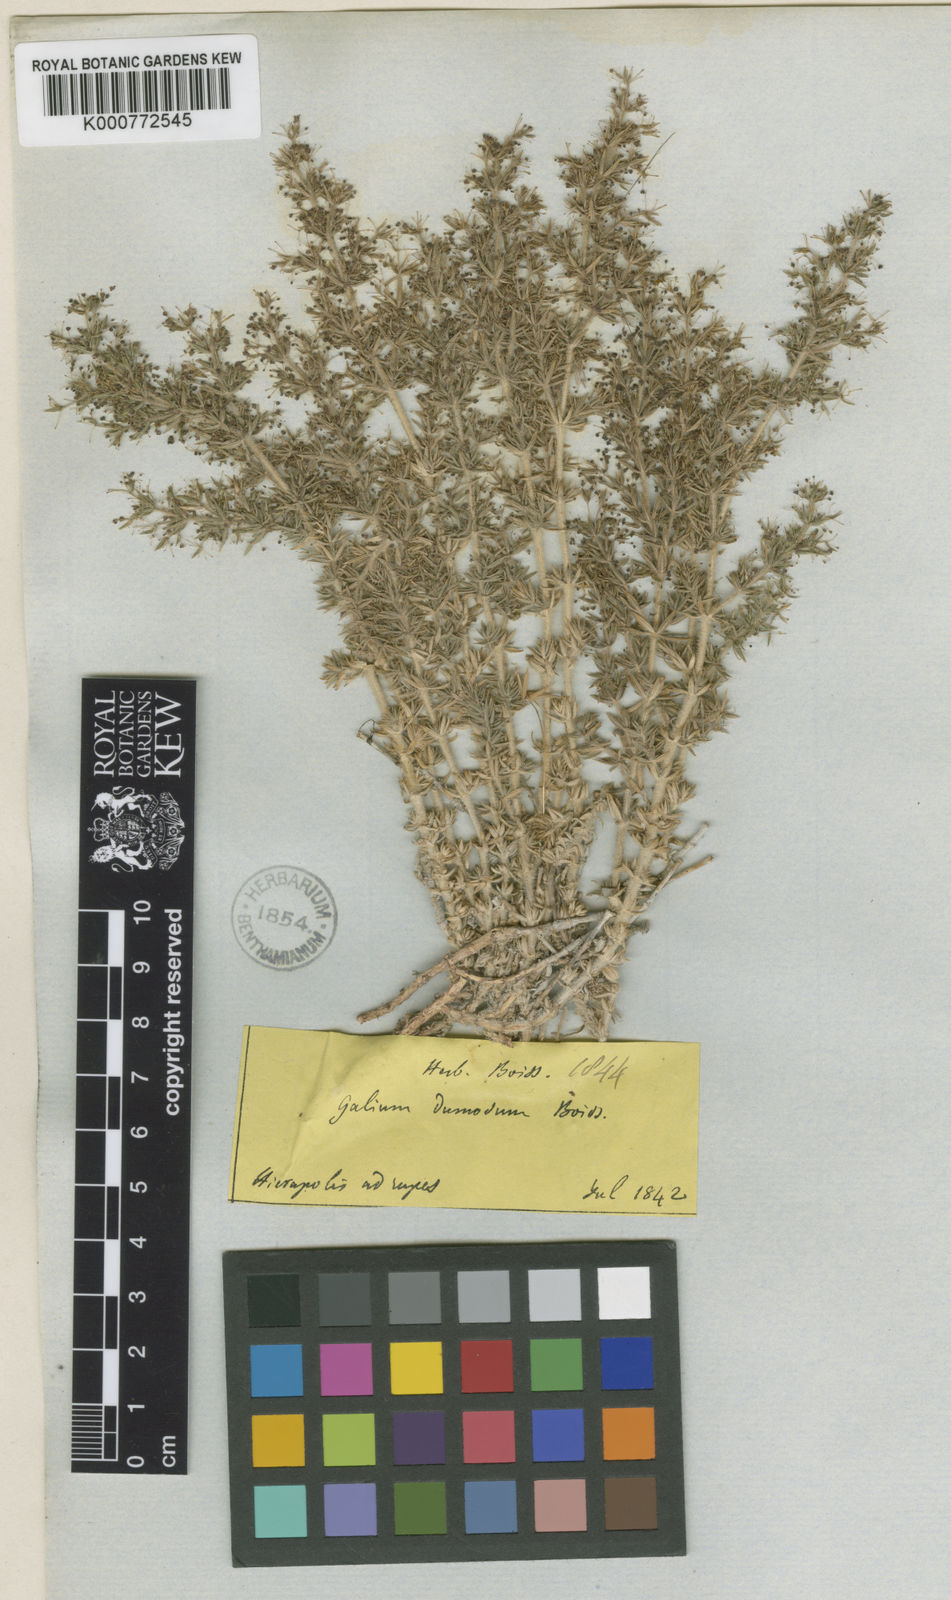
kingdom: Plantae
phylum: Tracheophyta
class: Magnoliopsida
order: Gentianales
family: Rubiaceae
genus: Galium
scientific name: Galium dumosum
